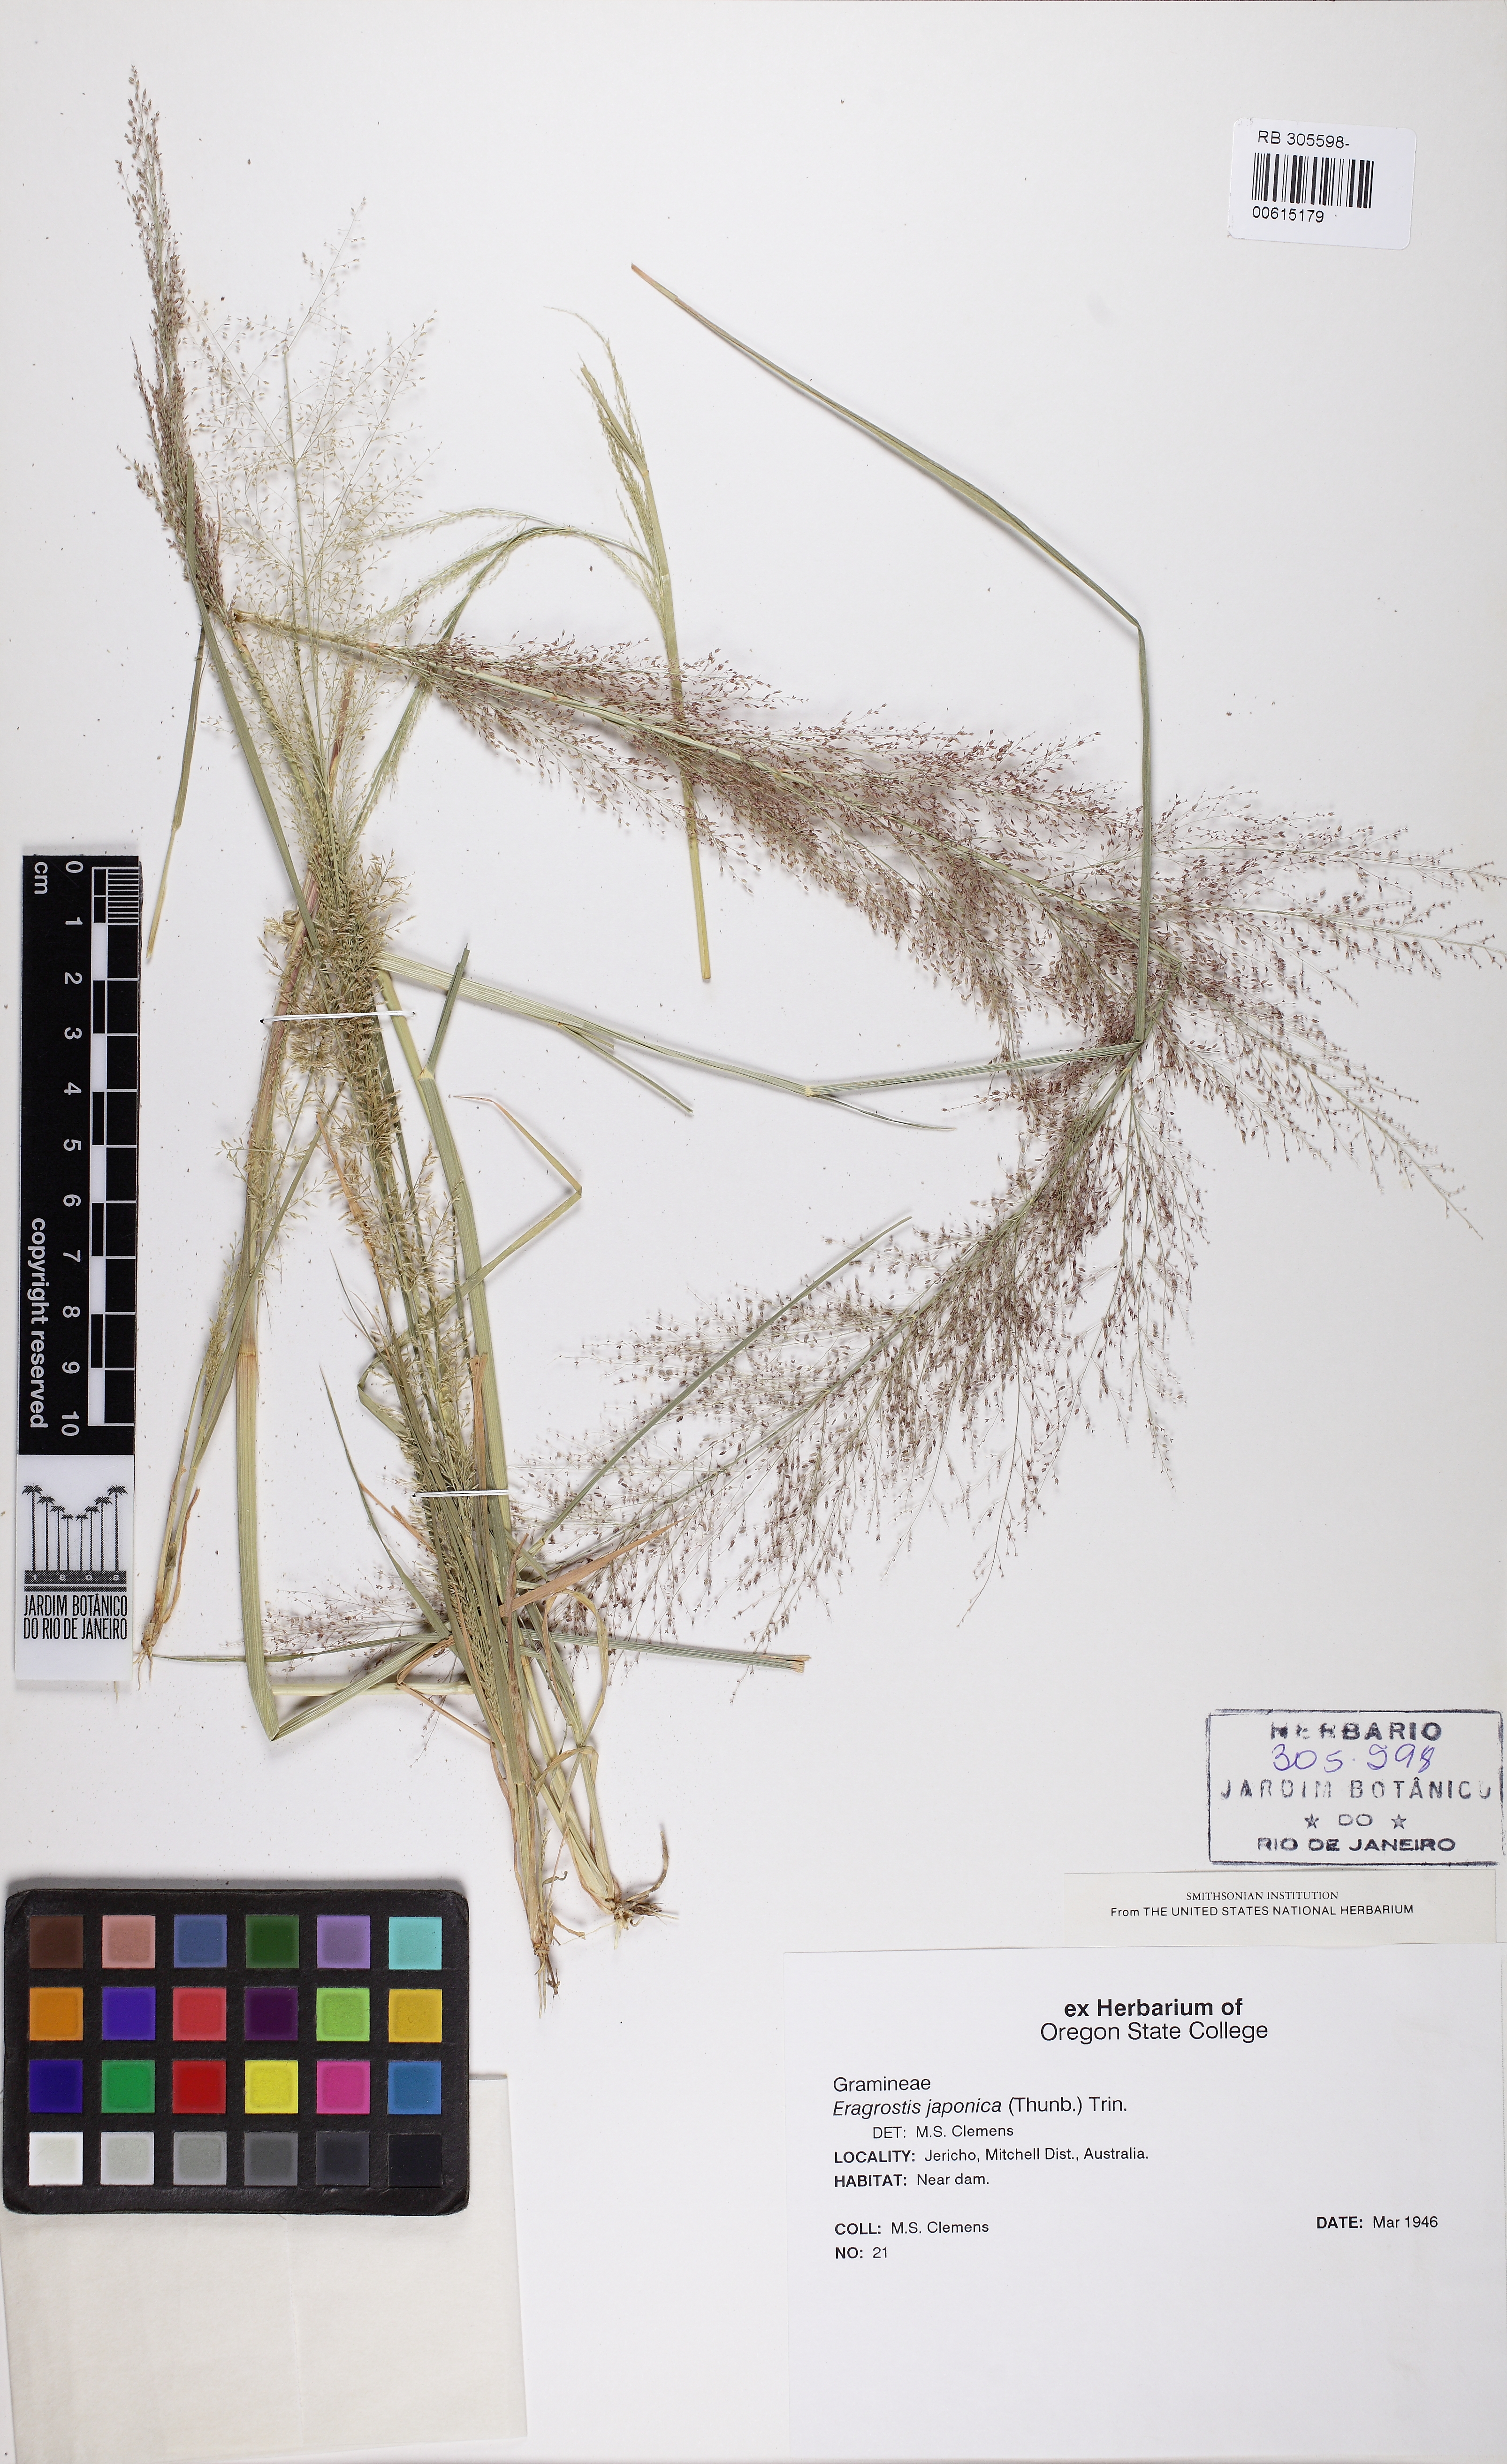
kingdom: Plantae
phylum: Tracheophyta
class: Liliopsida
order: Poales
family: Poaceae
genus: Eragrostis
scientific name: Eragrostis japonica
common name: Pond lovegrass
